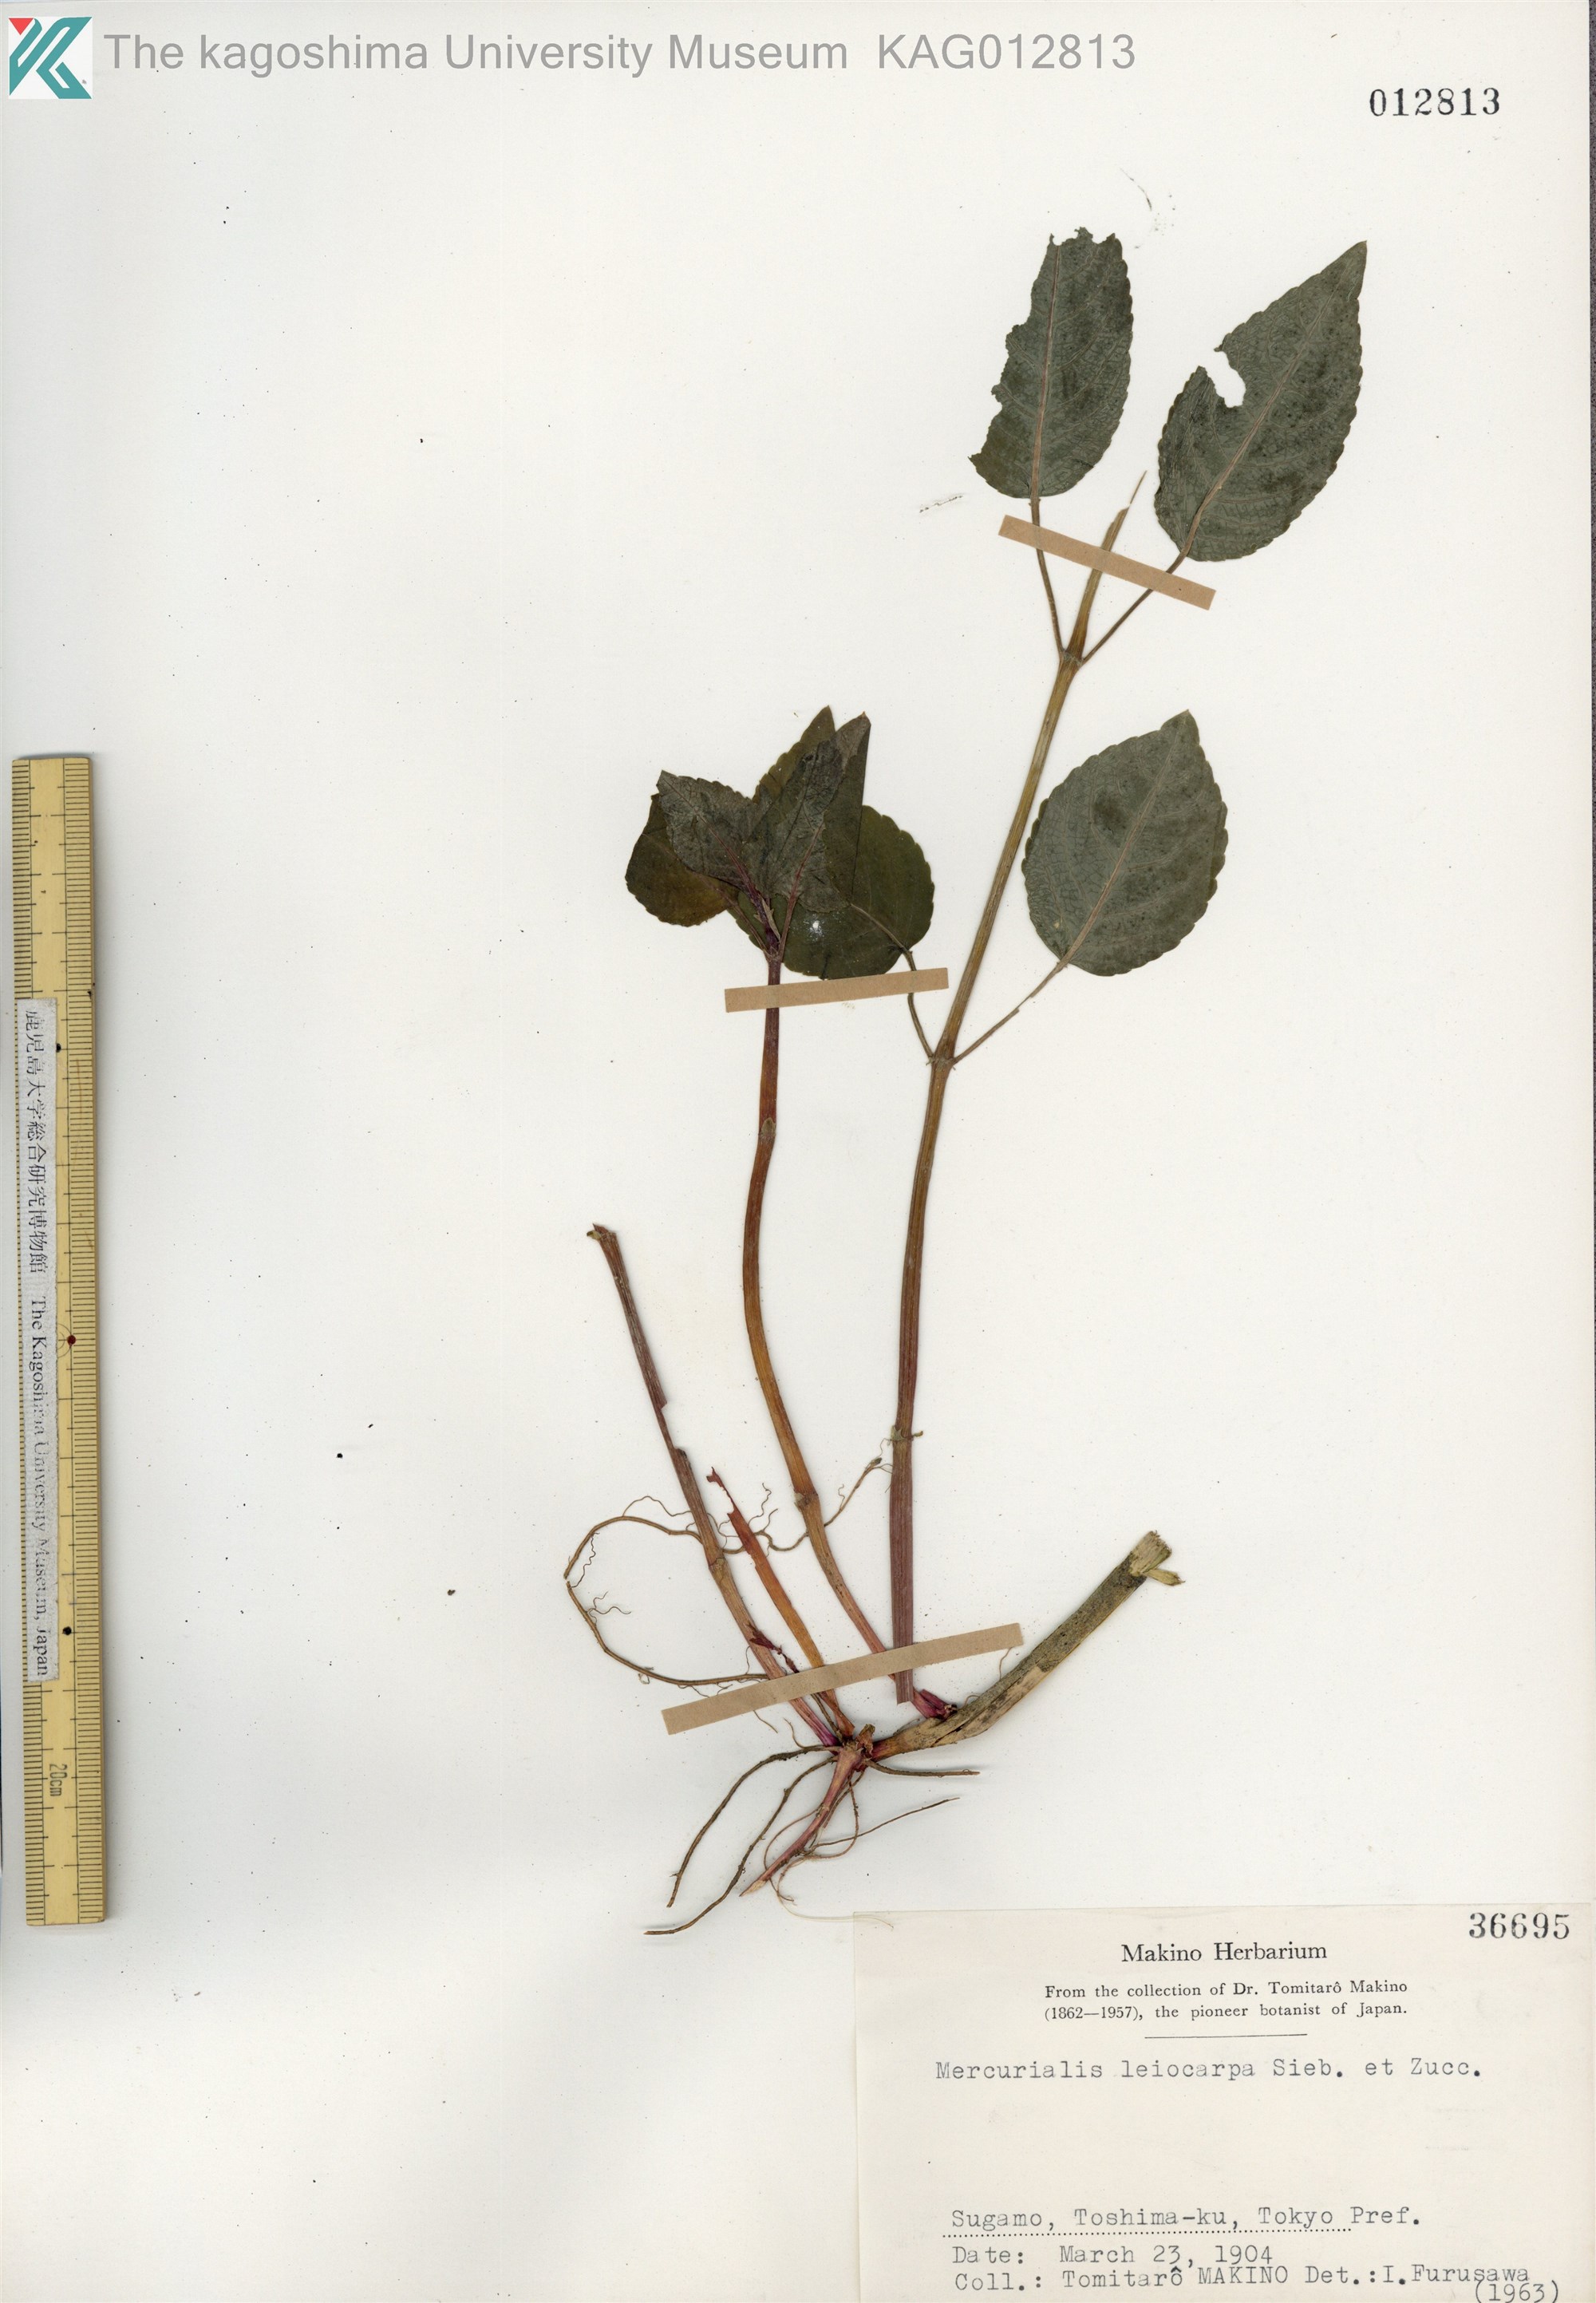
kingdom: Plantae
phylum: Tracheophyta
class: Magnoliopsida
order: Malpighiales
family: Euphorbiaceae
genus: Mercurialis
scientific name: Mercurialis leiocarpa
